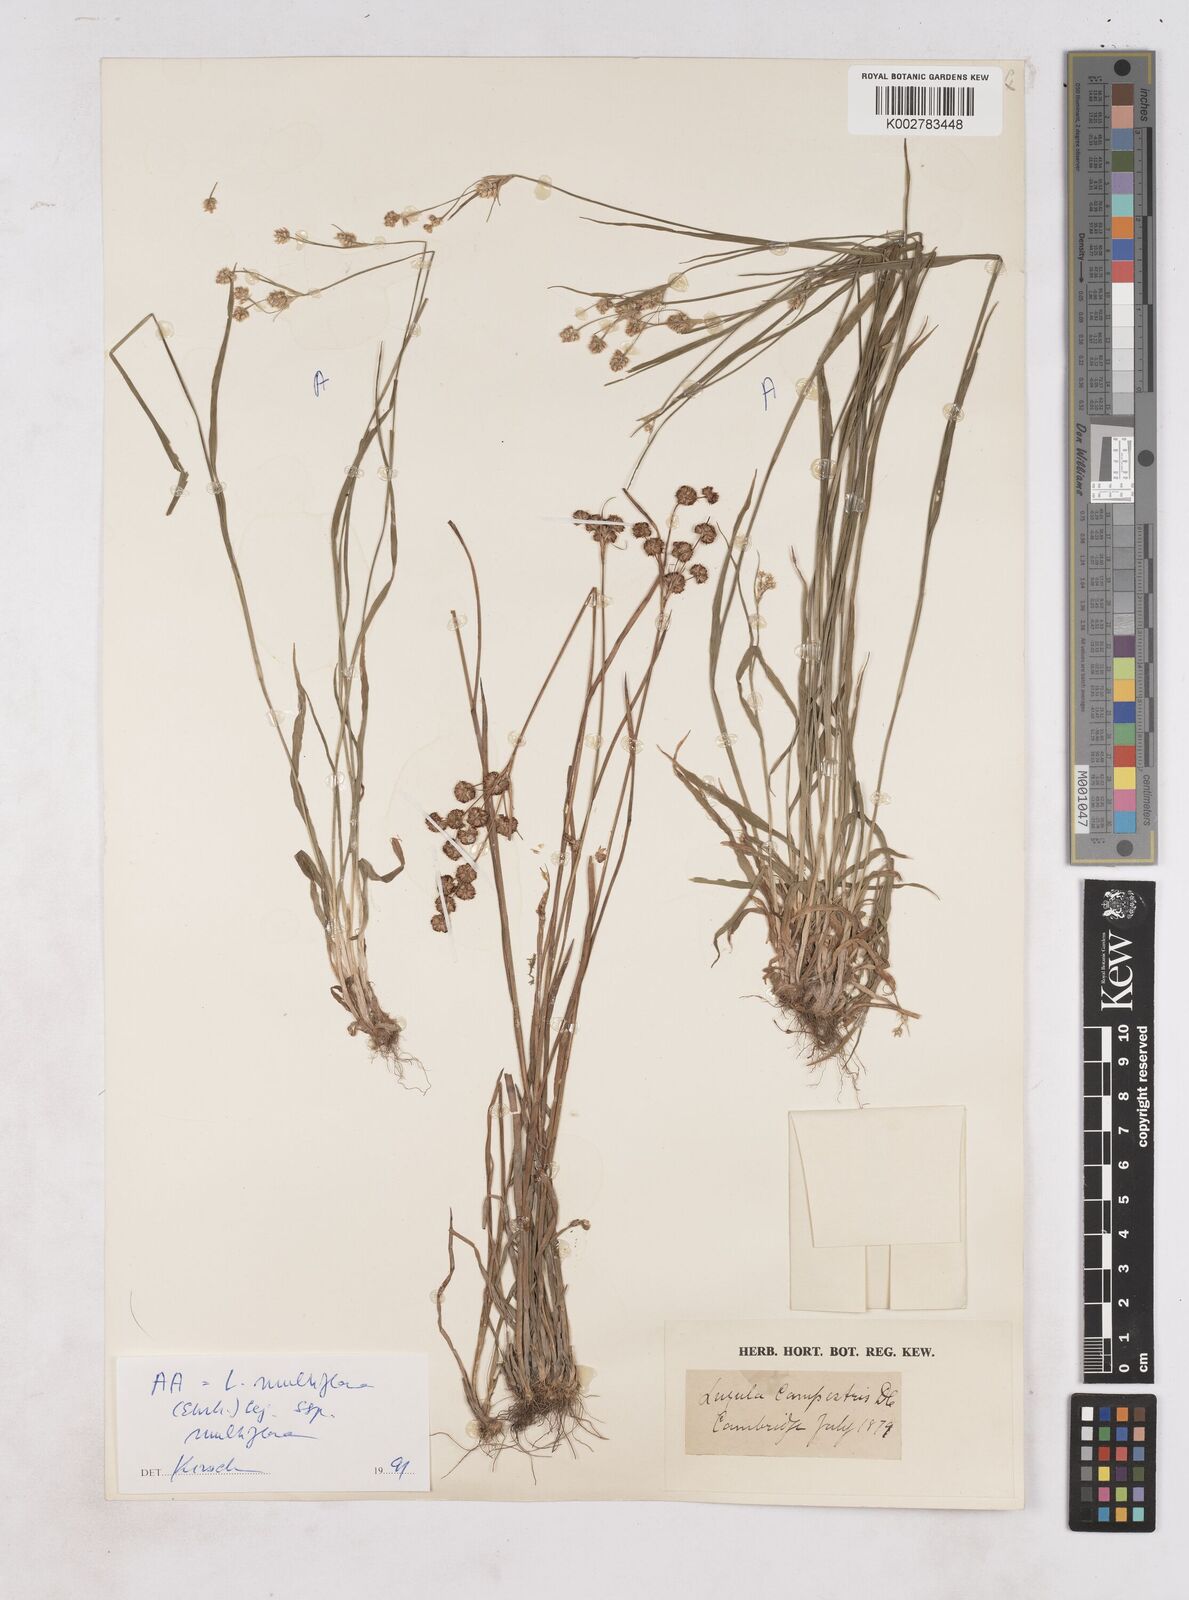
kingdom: Plantae
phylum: Tracheophyta
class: Liliopsida
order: Poales
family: Juncaceae
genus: Luzula
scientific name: Luzula campestris
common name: Field wood-rush
